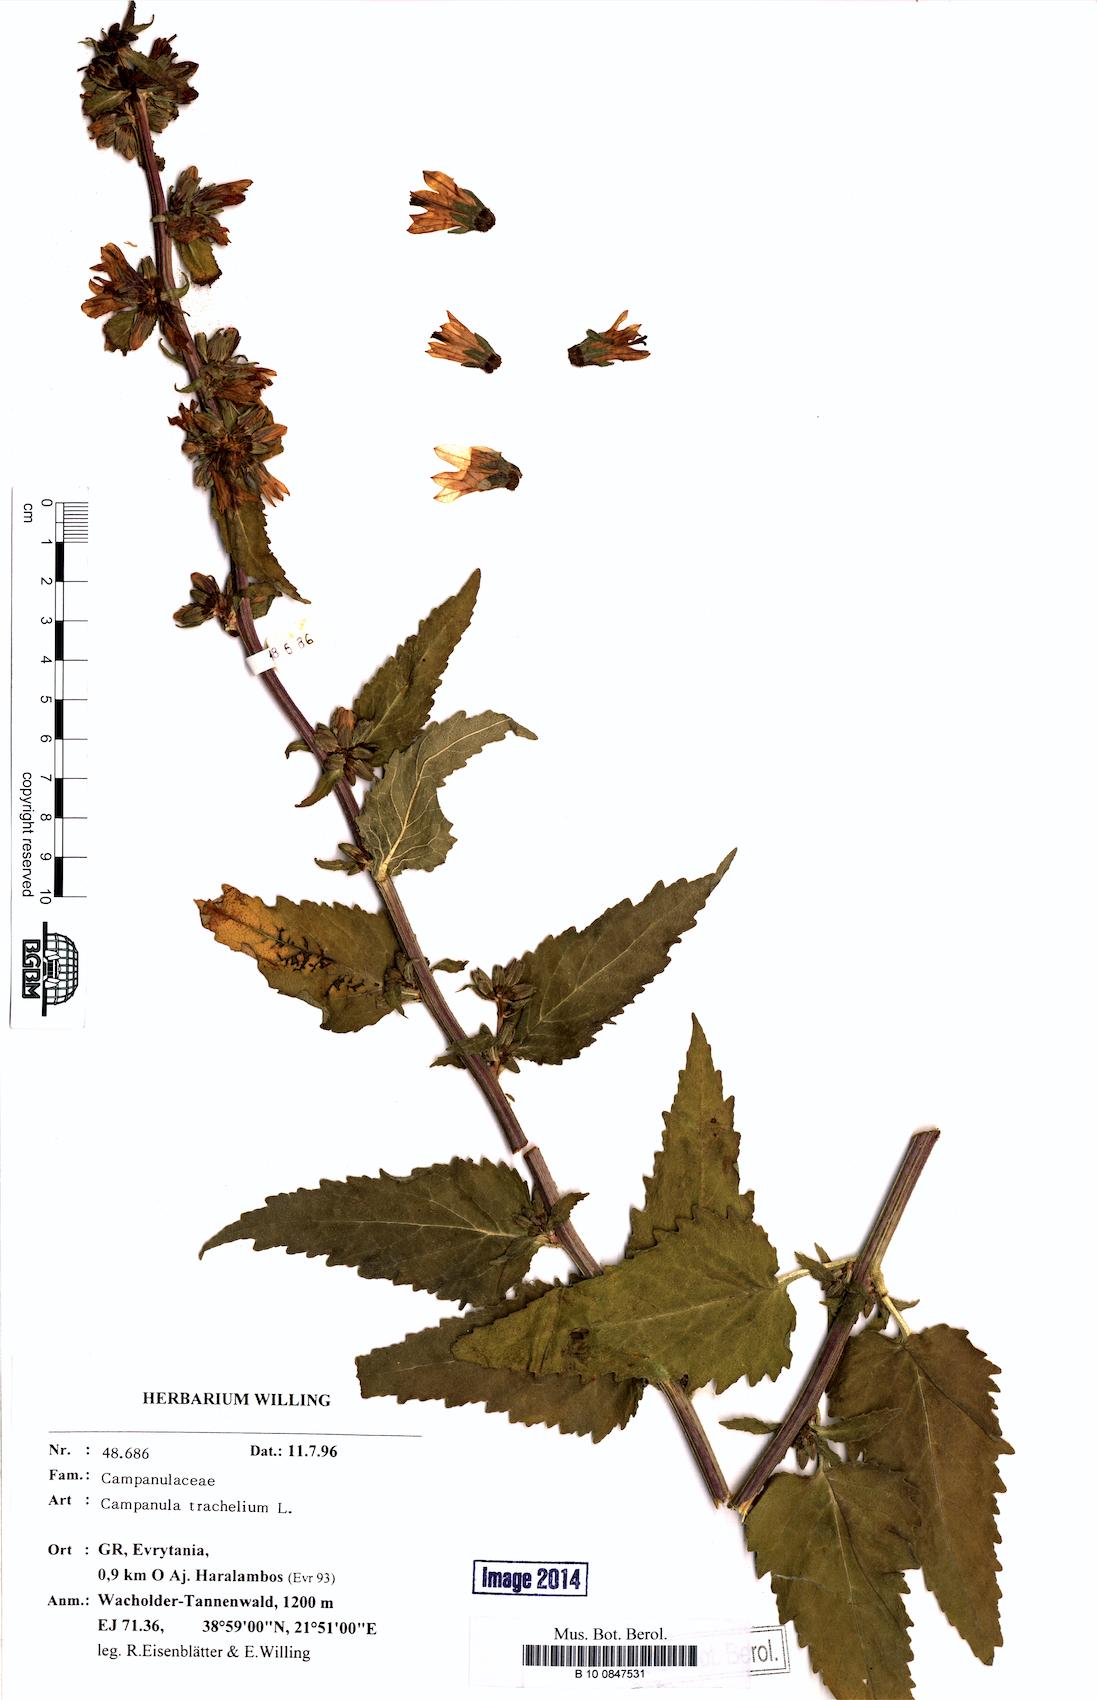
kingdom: Plantae
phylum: Tracheophyta
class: Magnoliopsida
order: Asterales
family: Campanulaceae
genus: Campanula
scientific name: Campanula trachelium
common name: Nettle-leaved bellflower
